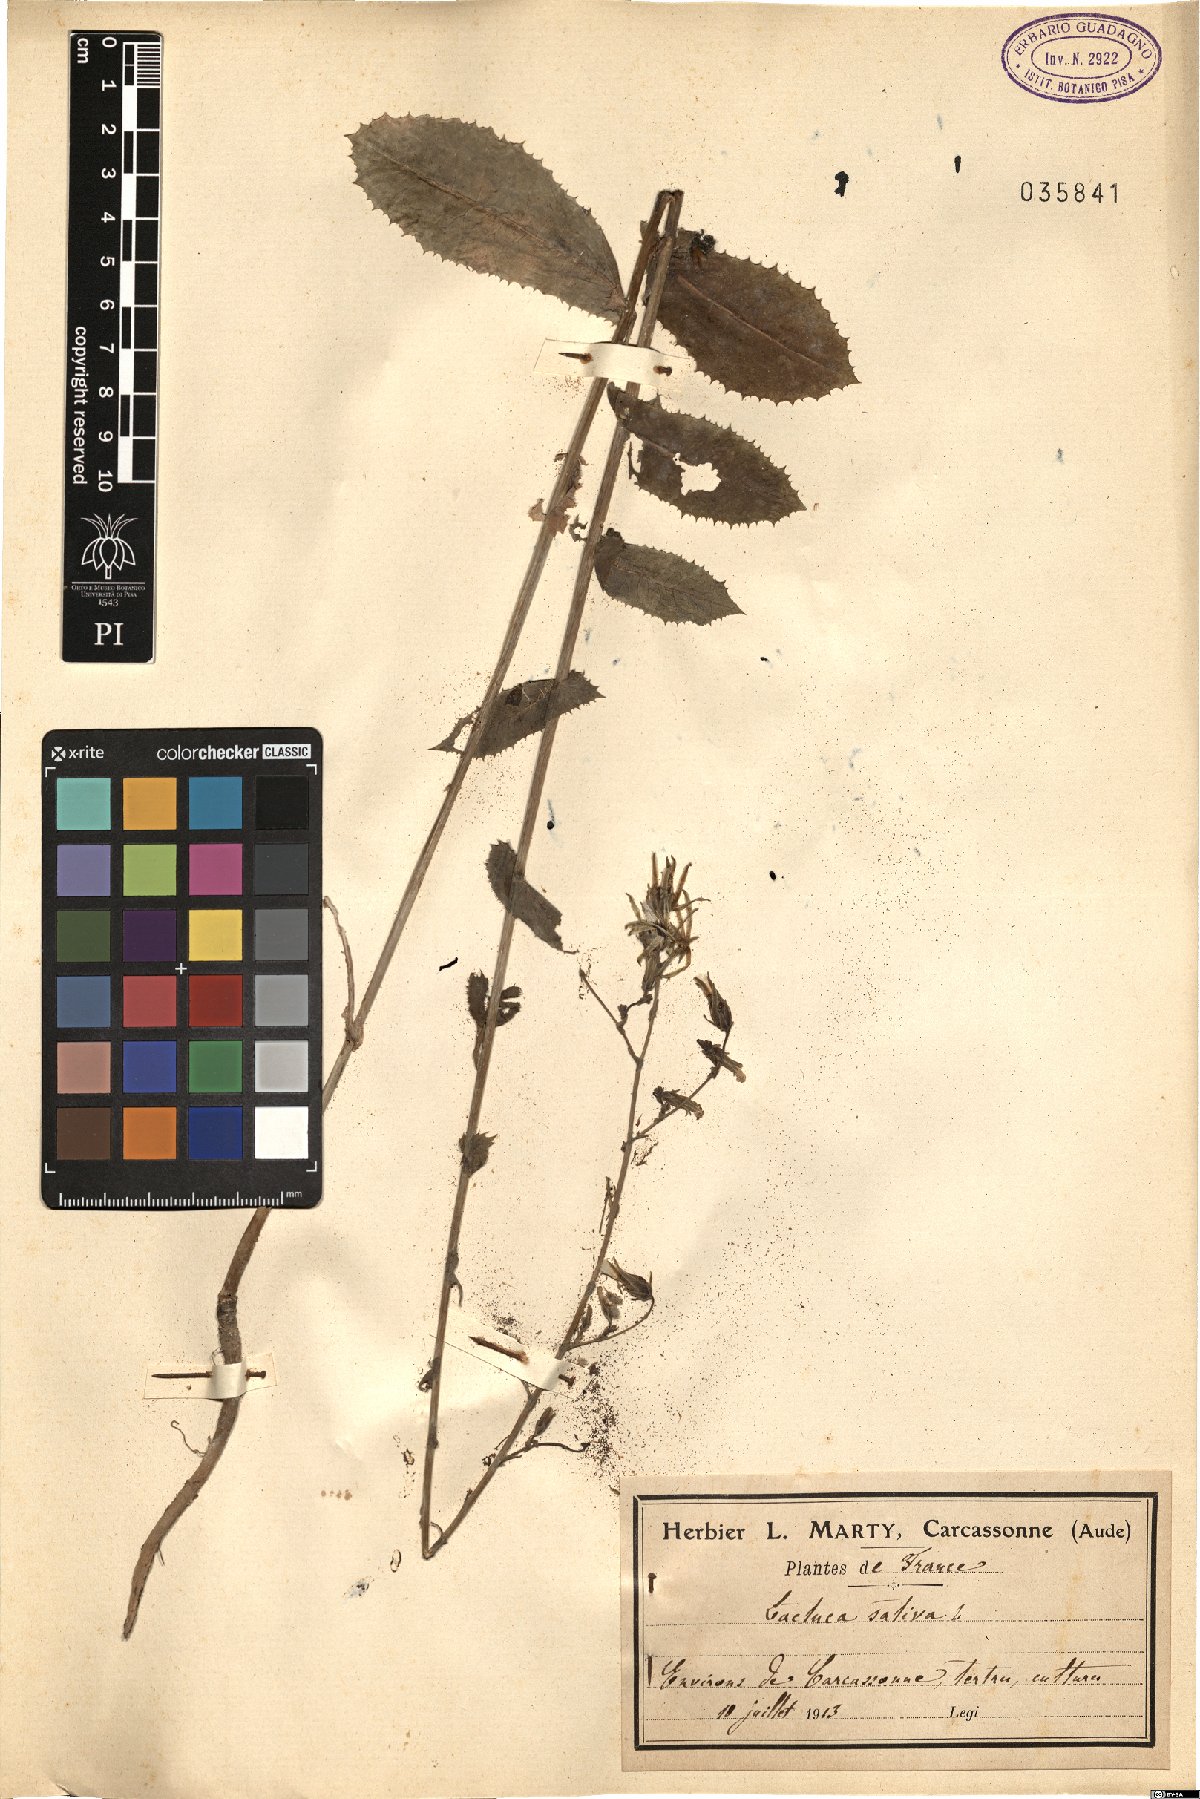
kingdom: Plantae
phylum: Tracheophyta
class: Magnoliopsida
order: Asterales
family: Asteraceae
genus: Lactuca
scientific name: Lactuca sativa
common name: Garden lettuce
